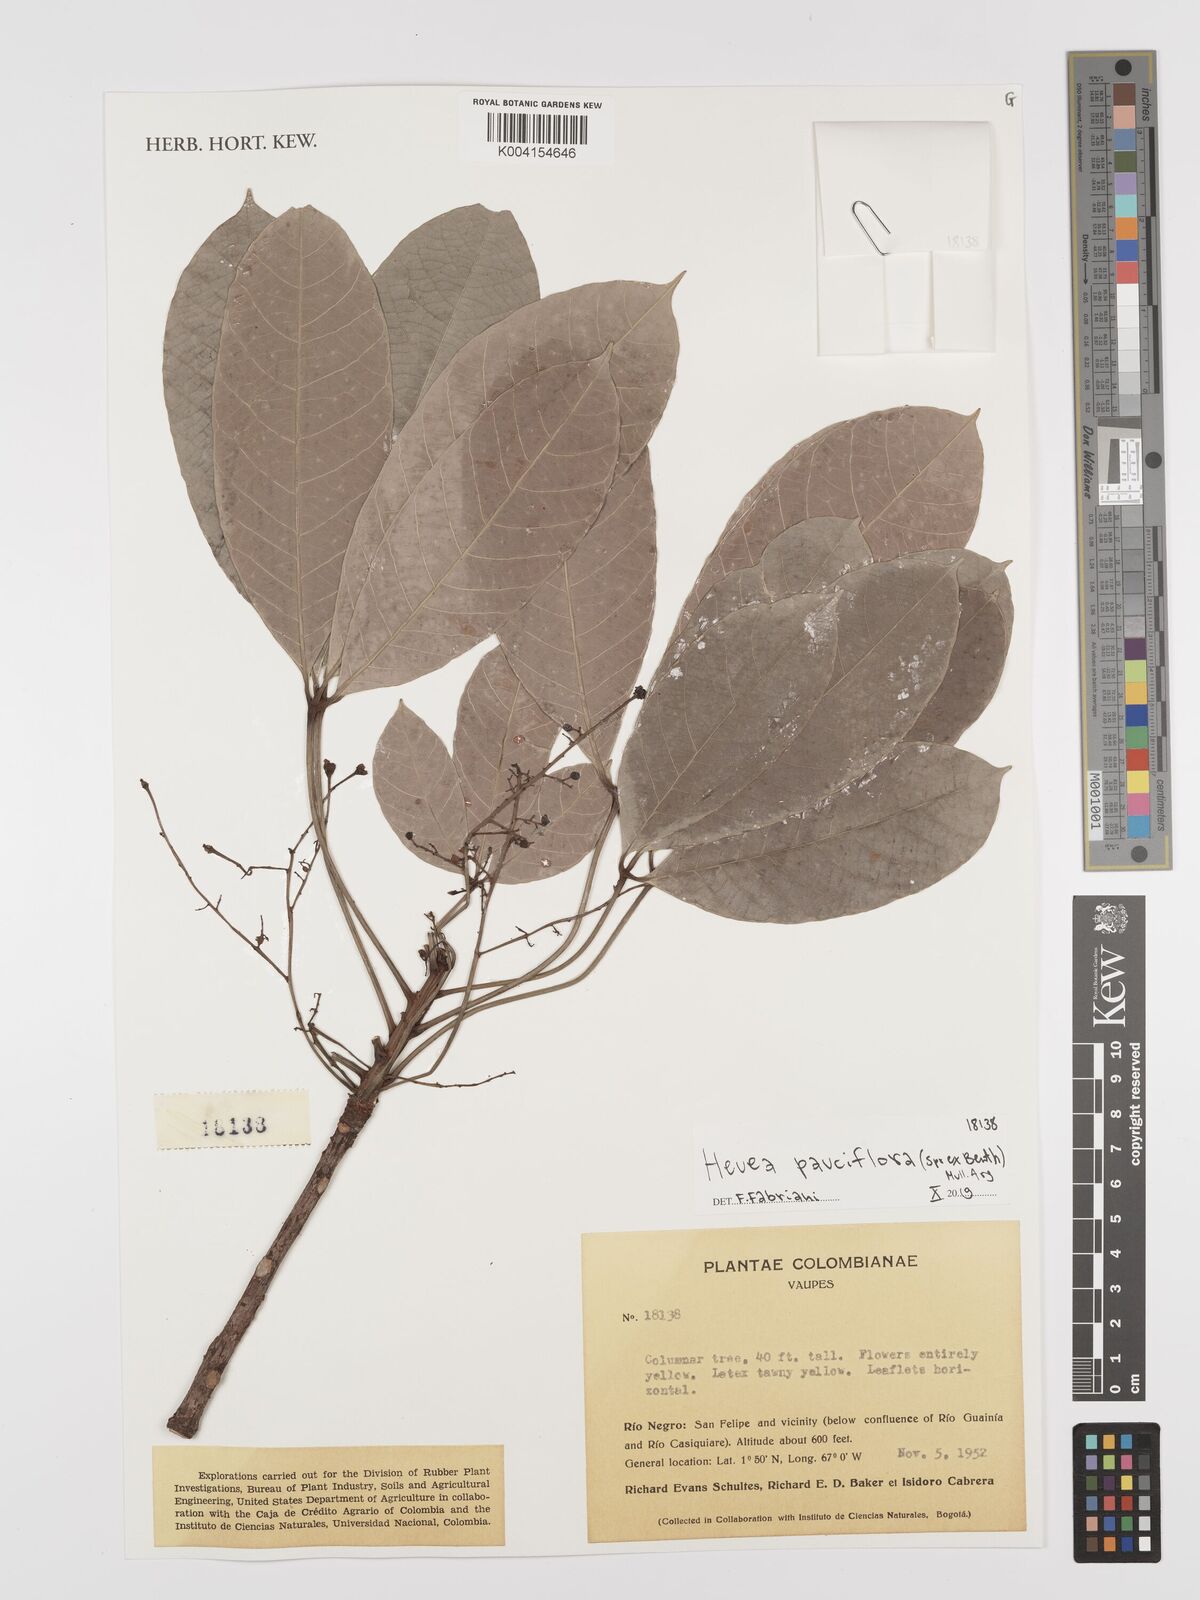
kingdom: Plantae
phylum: Tracheophyta
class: Magnoliopsida
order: Malpighiales
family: Euphorbiaceae
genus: Hevea
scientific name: Hevea pauciflora
